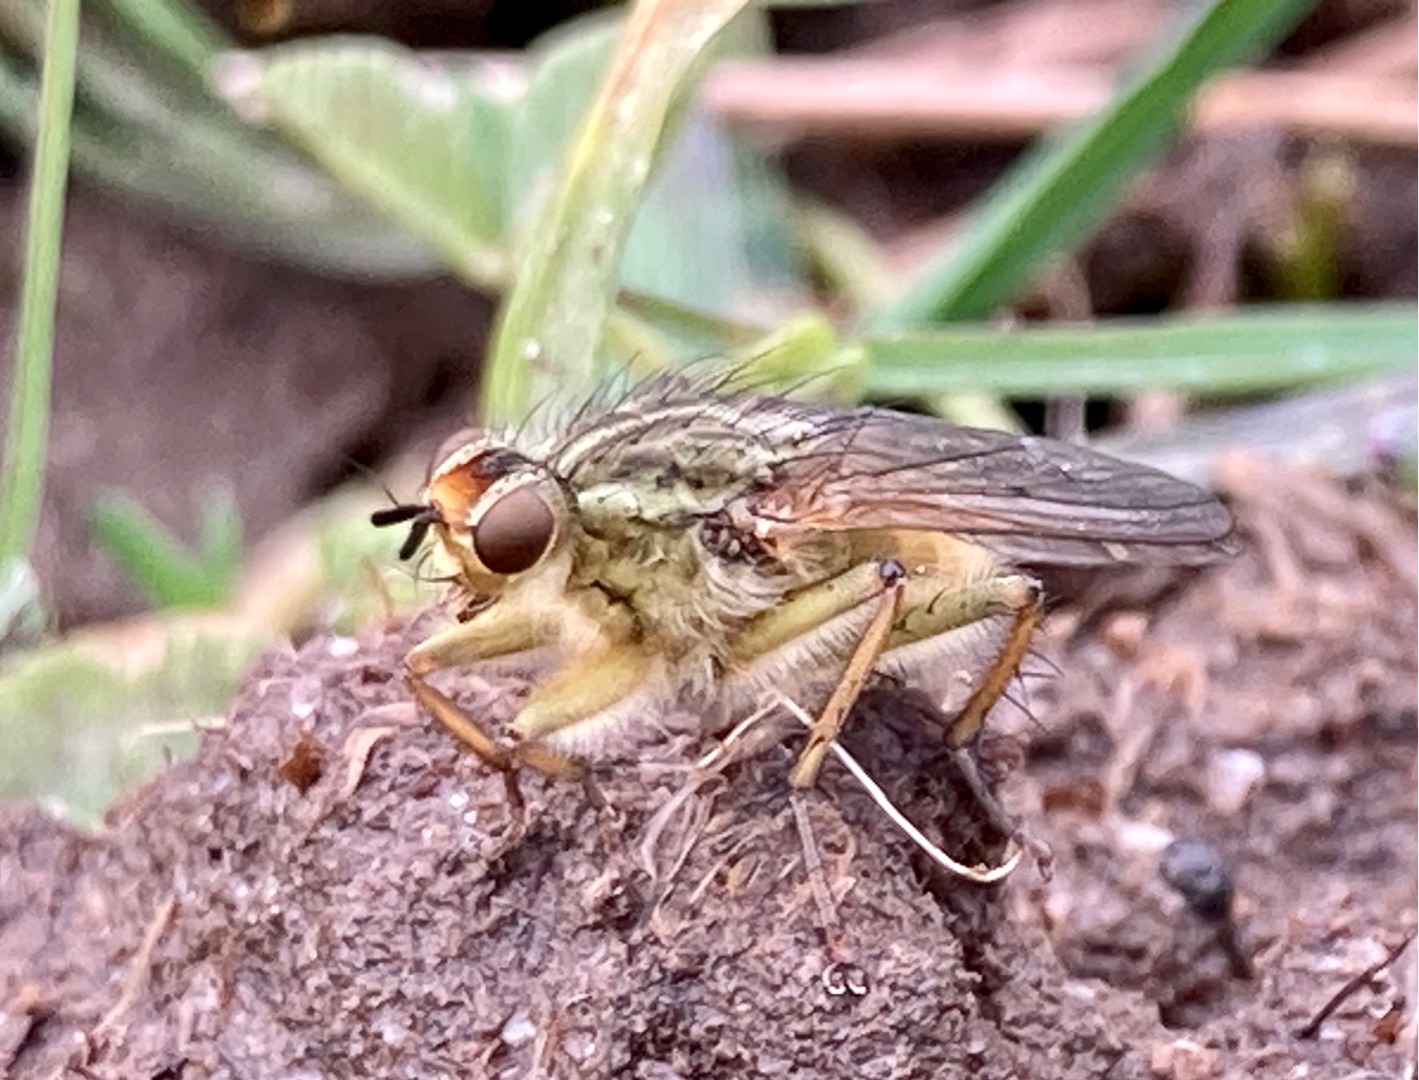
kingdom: Animalia
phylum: Arthropoda
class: Insecta
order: Diptera
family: Scathophagidae
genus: Scathophaga
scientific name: Scathophaga stercoraria
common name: Almindelig gødningsflue
